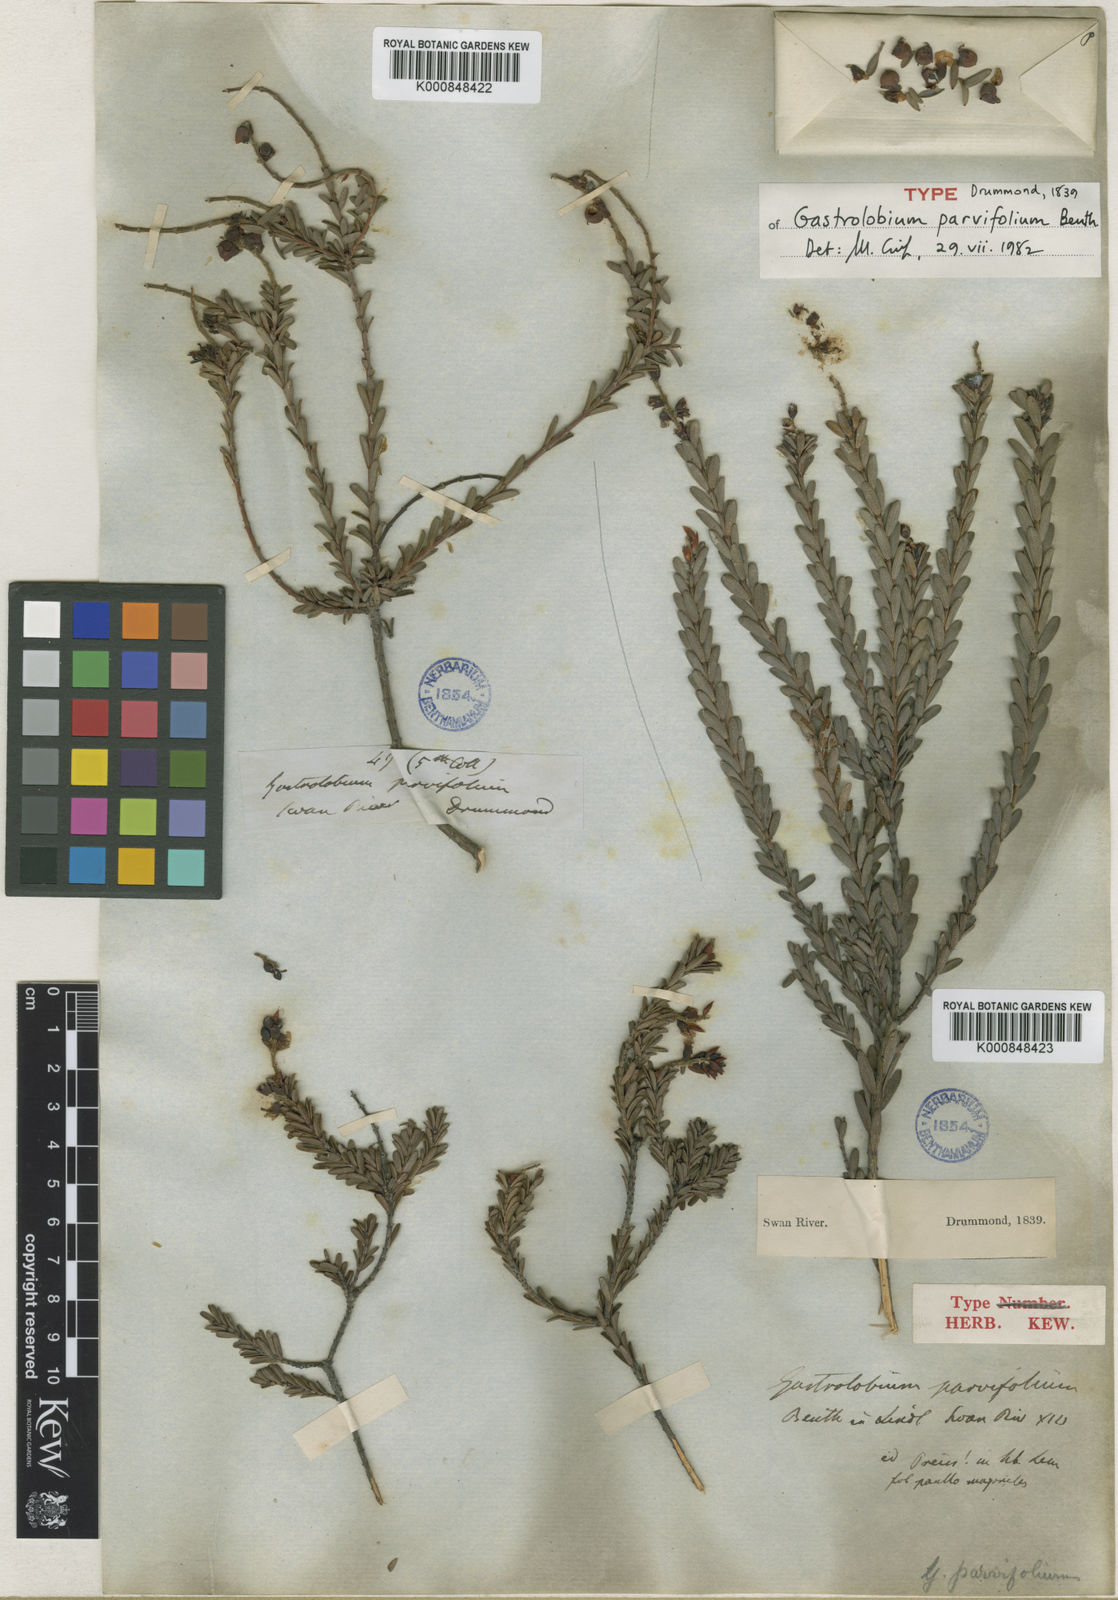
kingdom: Plantae
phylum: Tracheophyta
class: Magnoliopsida
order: Fabales
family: Fabaceae
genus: Gastrolobium
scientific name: Gastrolobium parvifolium
